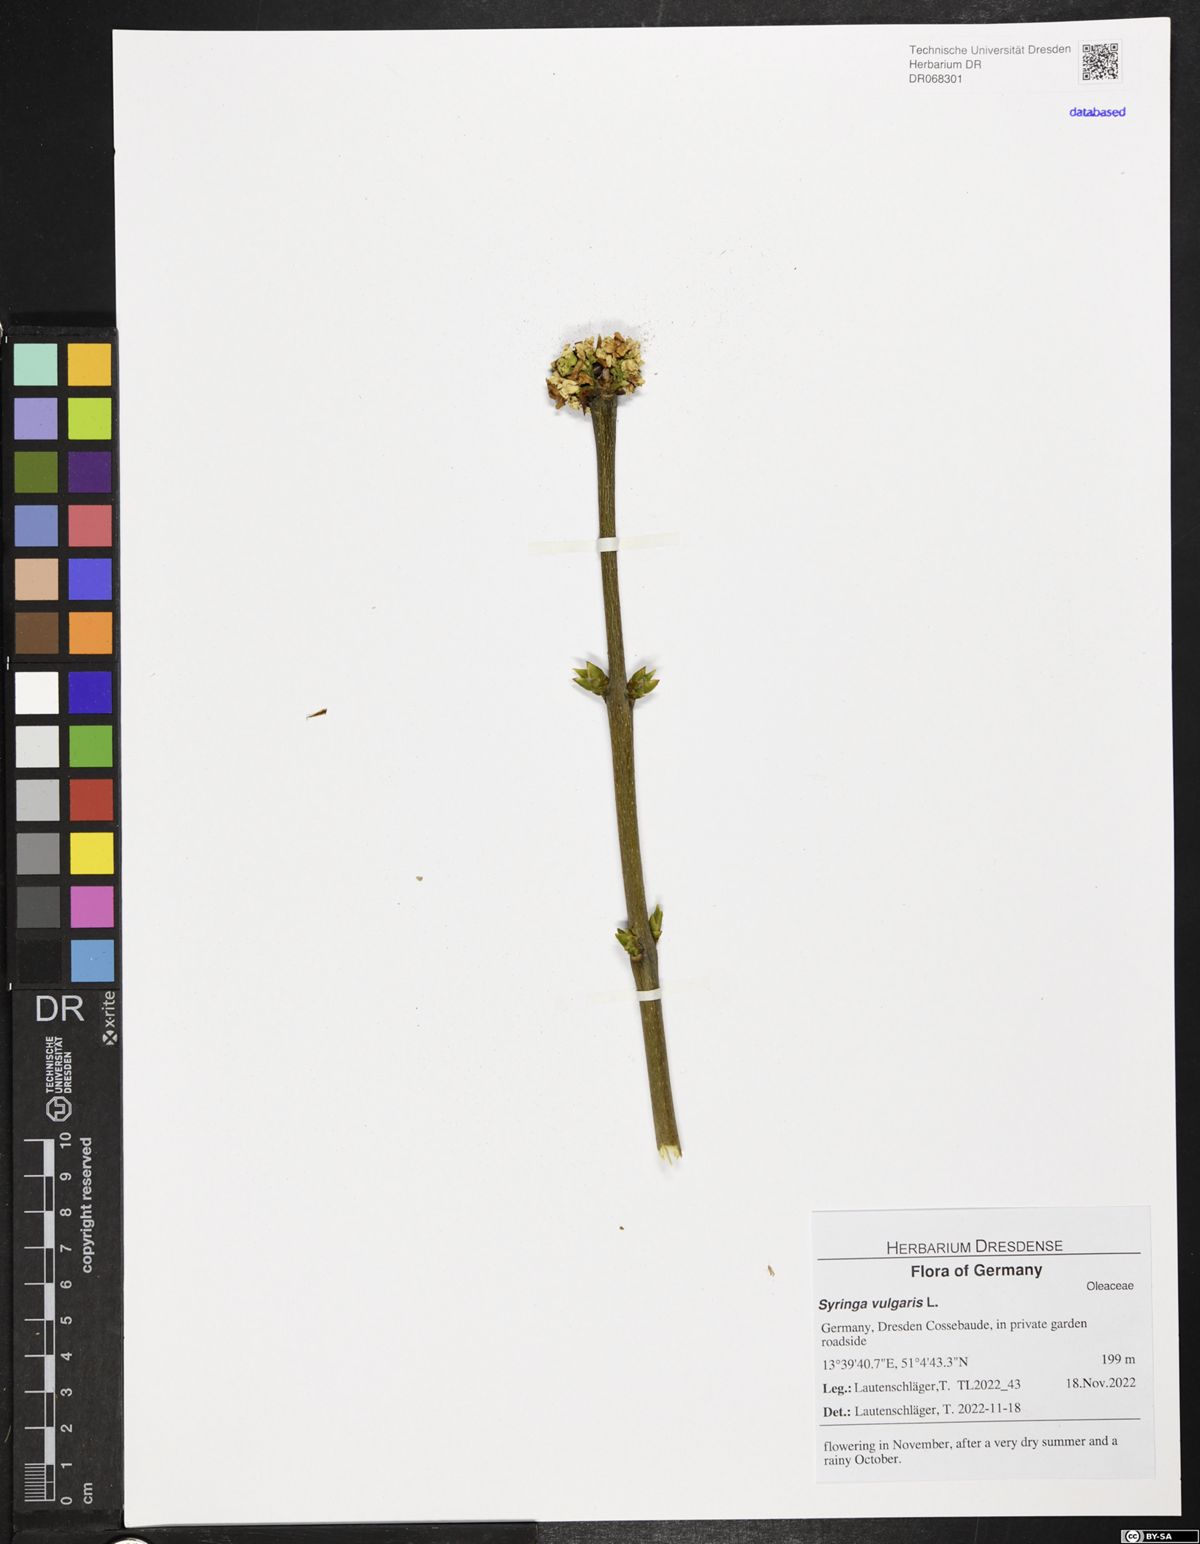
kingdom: Plantae
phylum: Tracheophyta
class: Magnoliopsida
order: Lamiales
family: Oleaceae
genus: Syringa
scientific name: Syringa vulgaris
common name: Common lilac
